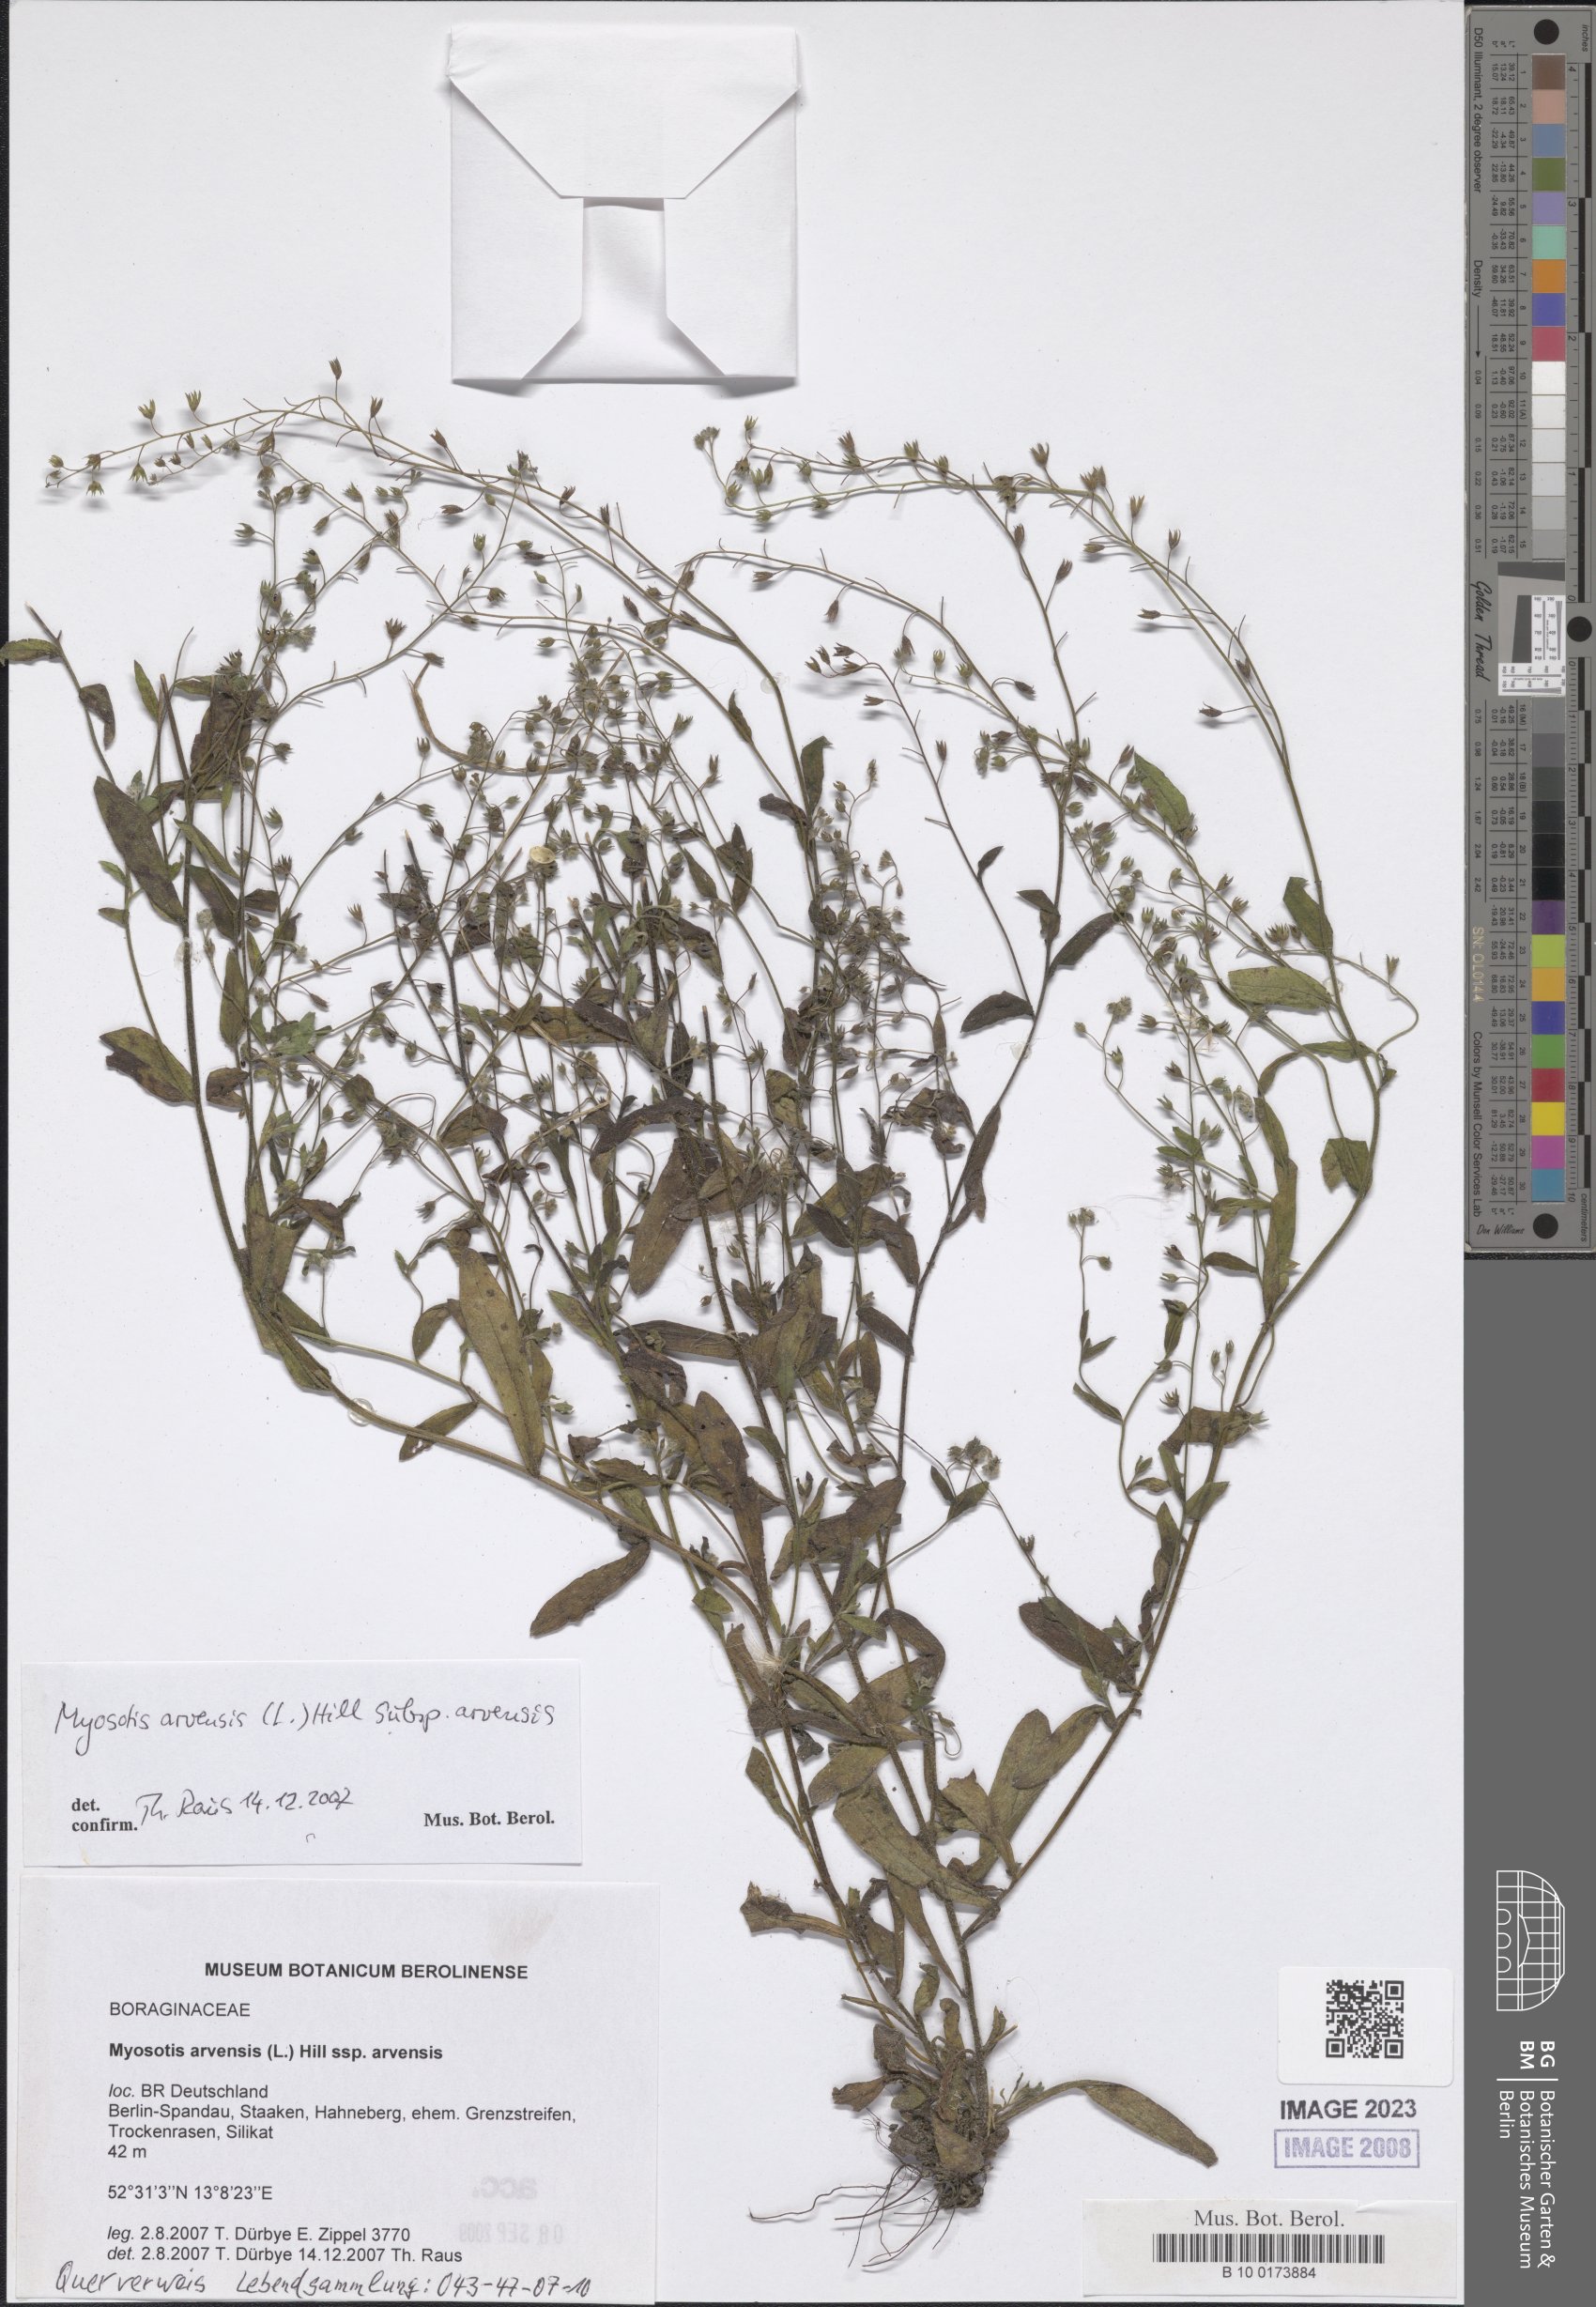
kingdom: Plantae
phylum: Tracheophyta
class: Magnoliopsida
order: Boraginales
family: Boraginaceae
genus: Myosotis
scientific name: Myosotis arvensis
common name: Field forget-me-not
